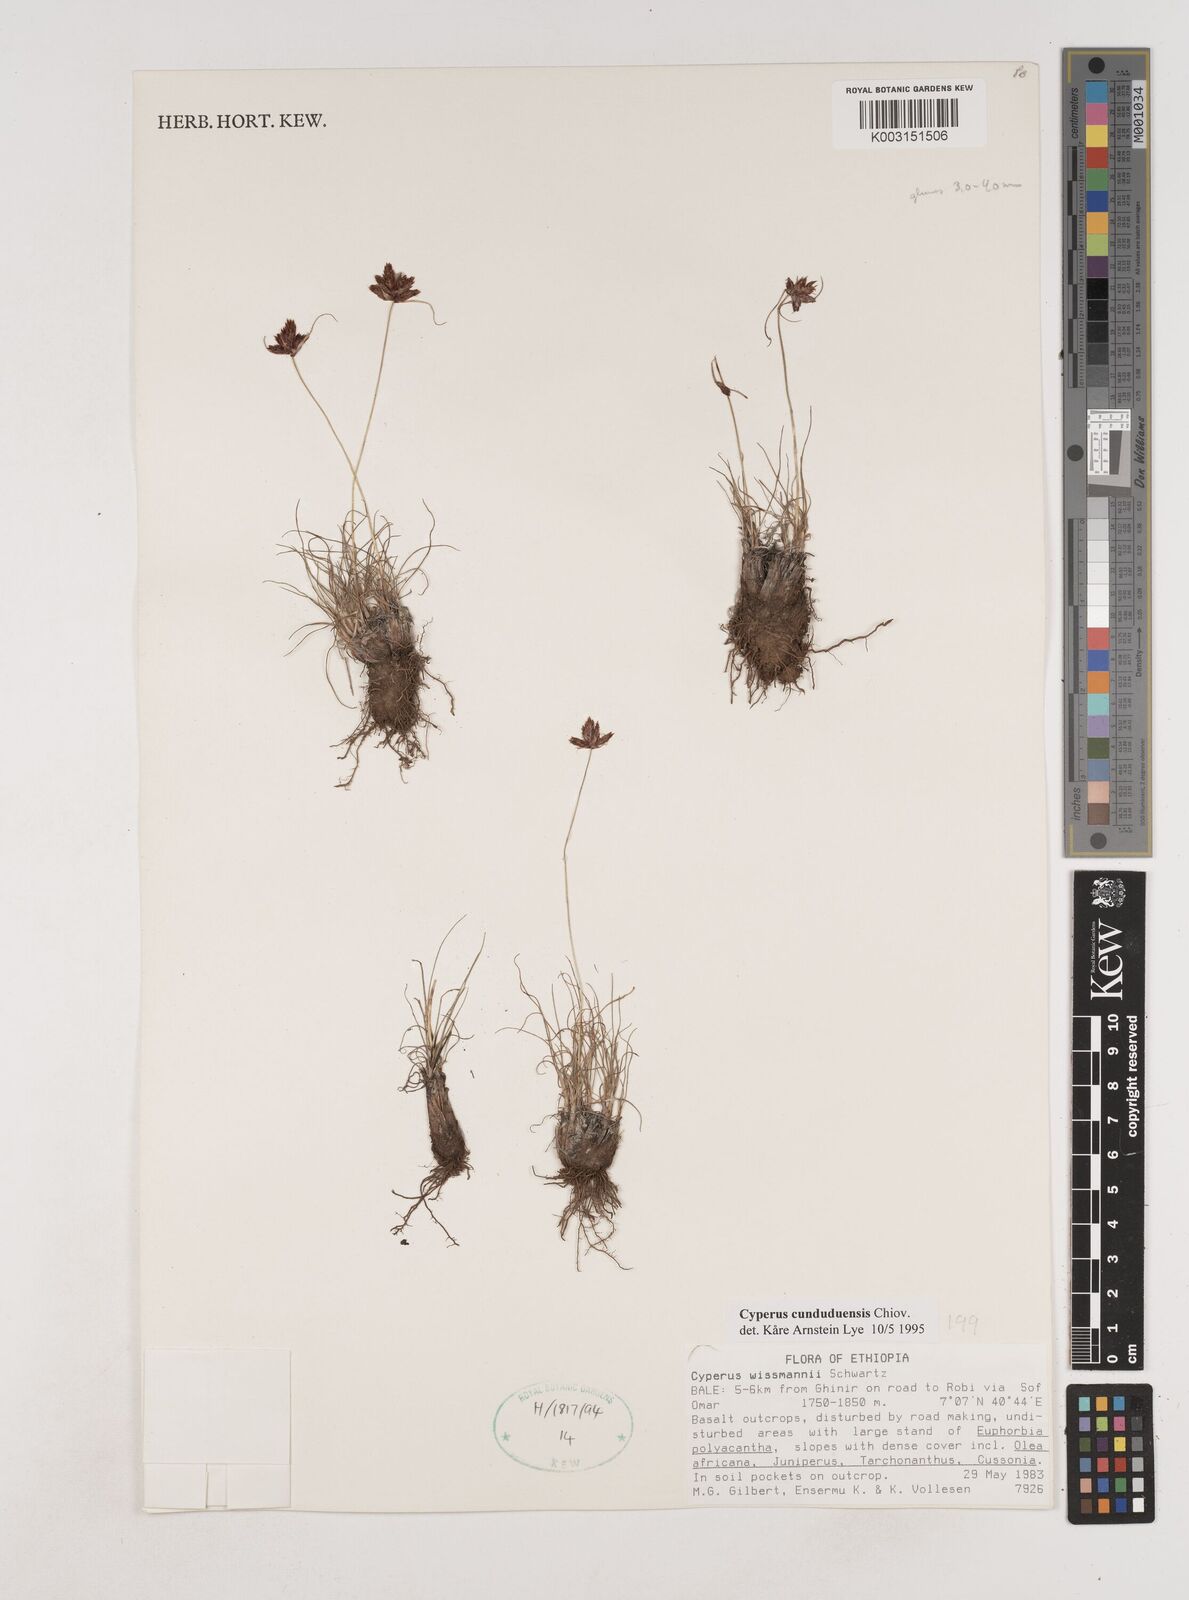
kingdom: Plantae
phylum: Tracheophyta
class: Liliopsida
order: Poales
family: Cyperaceae
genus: Cyperus
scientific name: Cyperus
